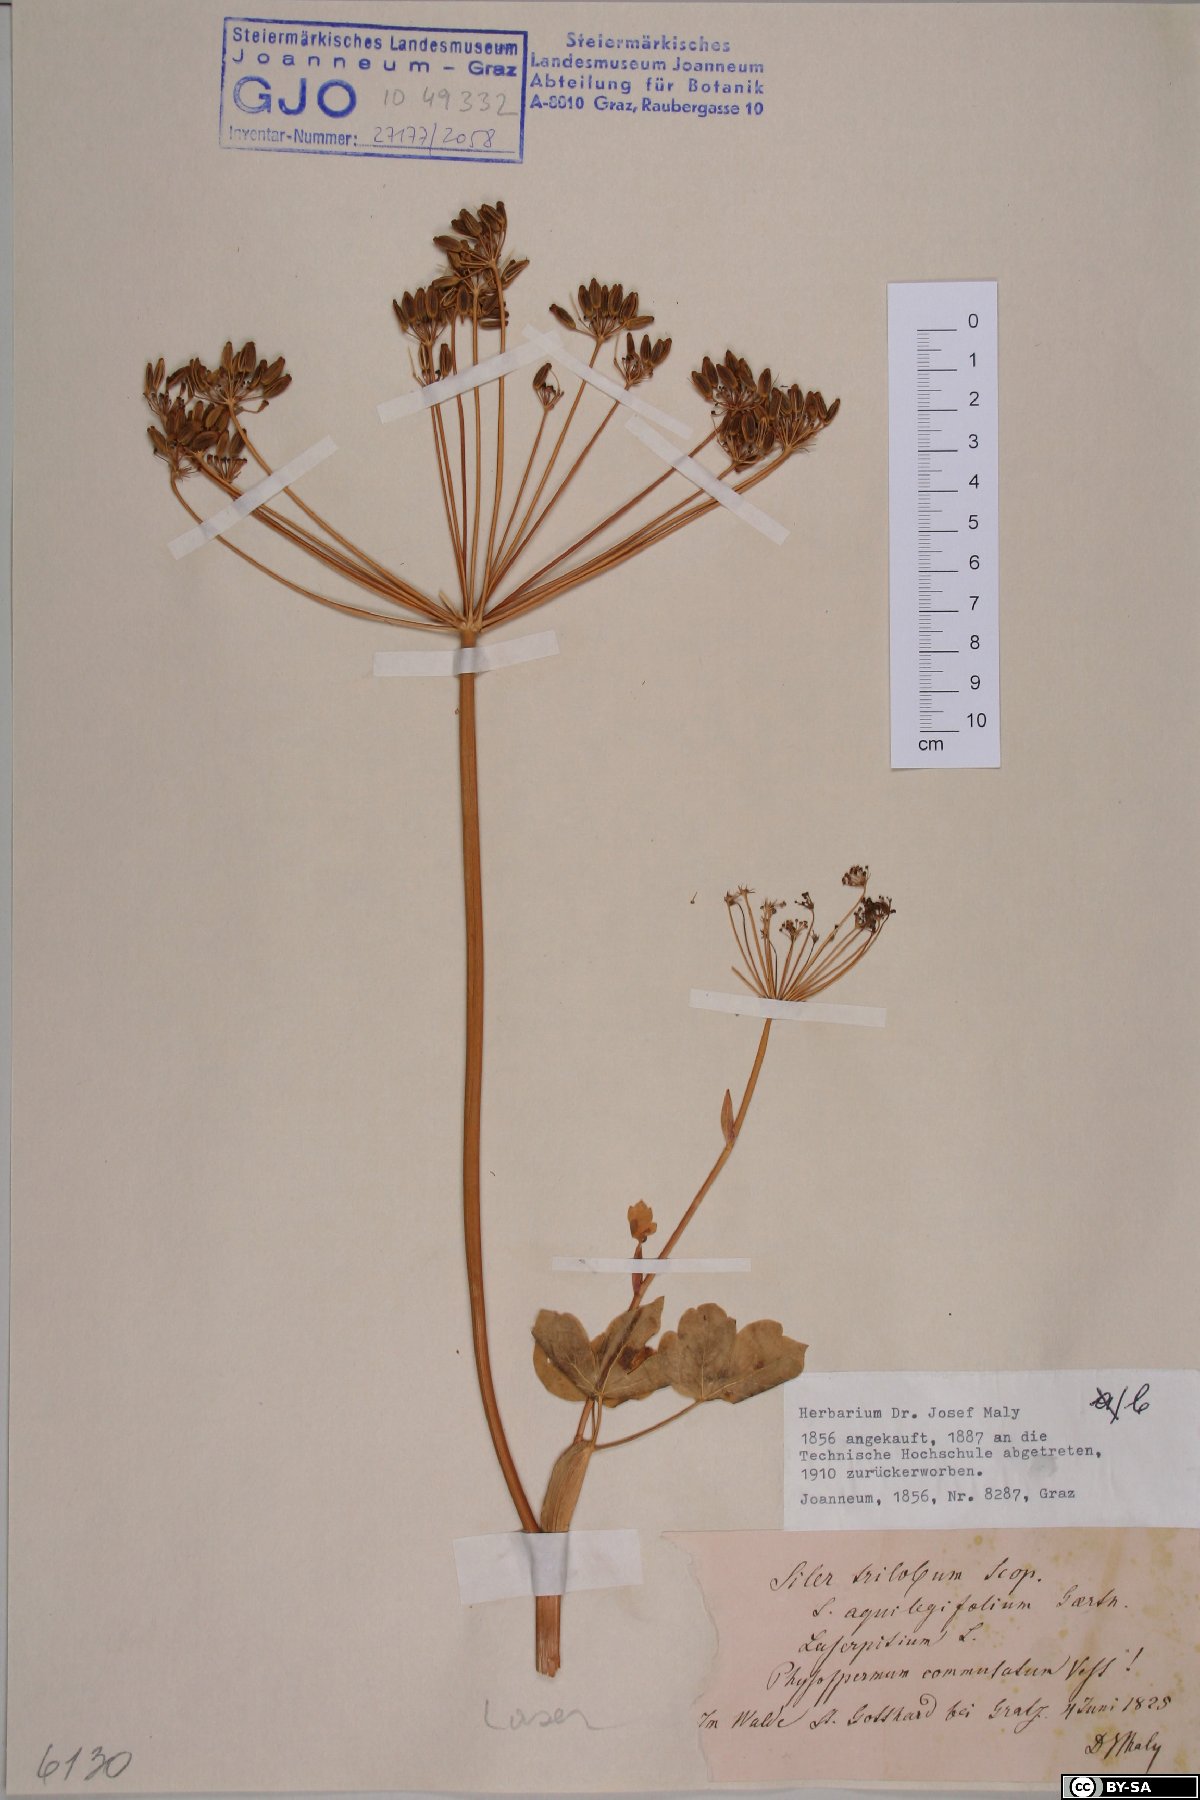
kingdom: Plantae
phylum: Tracheophyta
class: Magnoliopsida
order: Apiales
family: Apiaceae
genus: Laser
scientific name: Laser trilobum
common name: Laser
